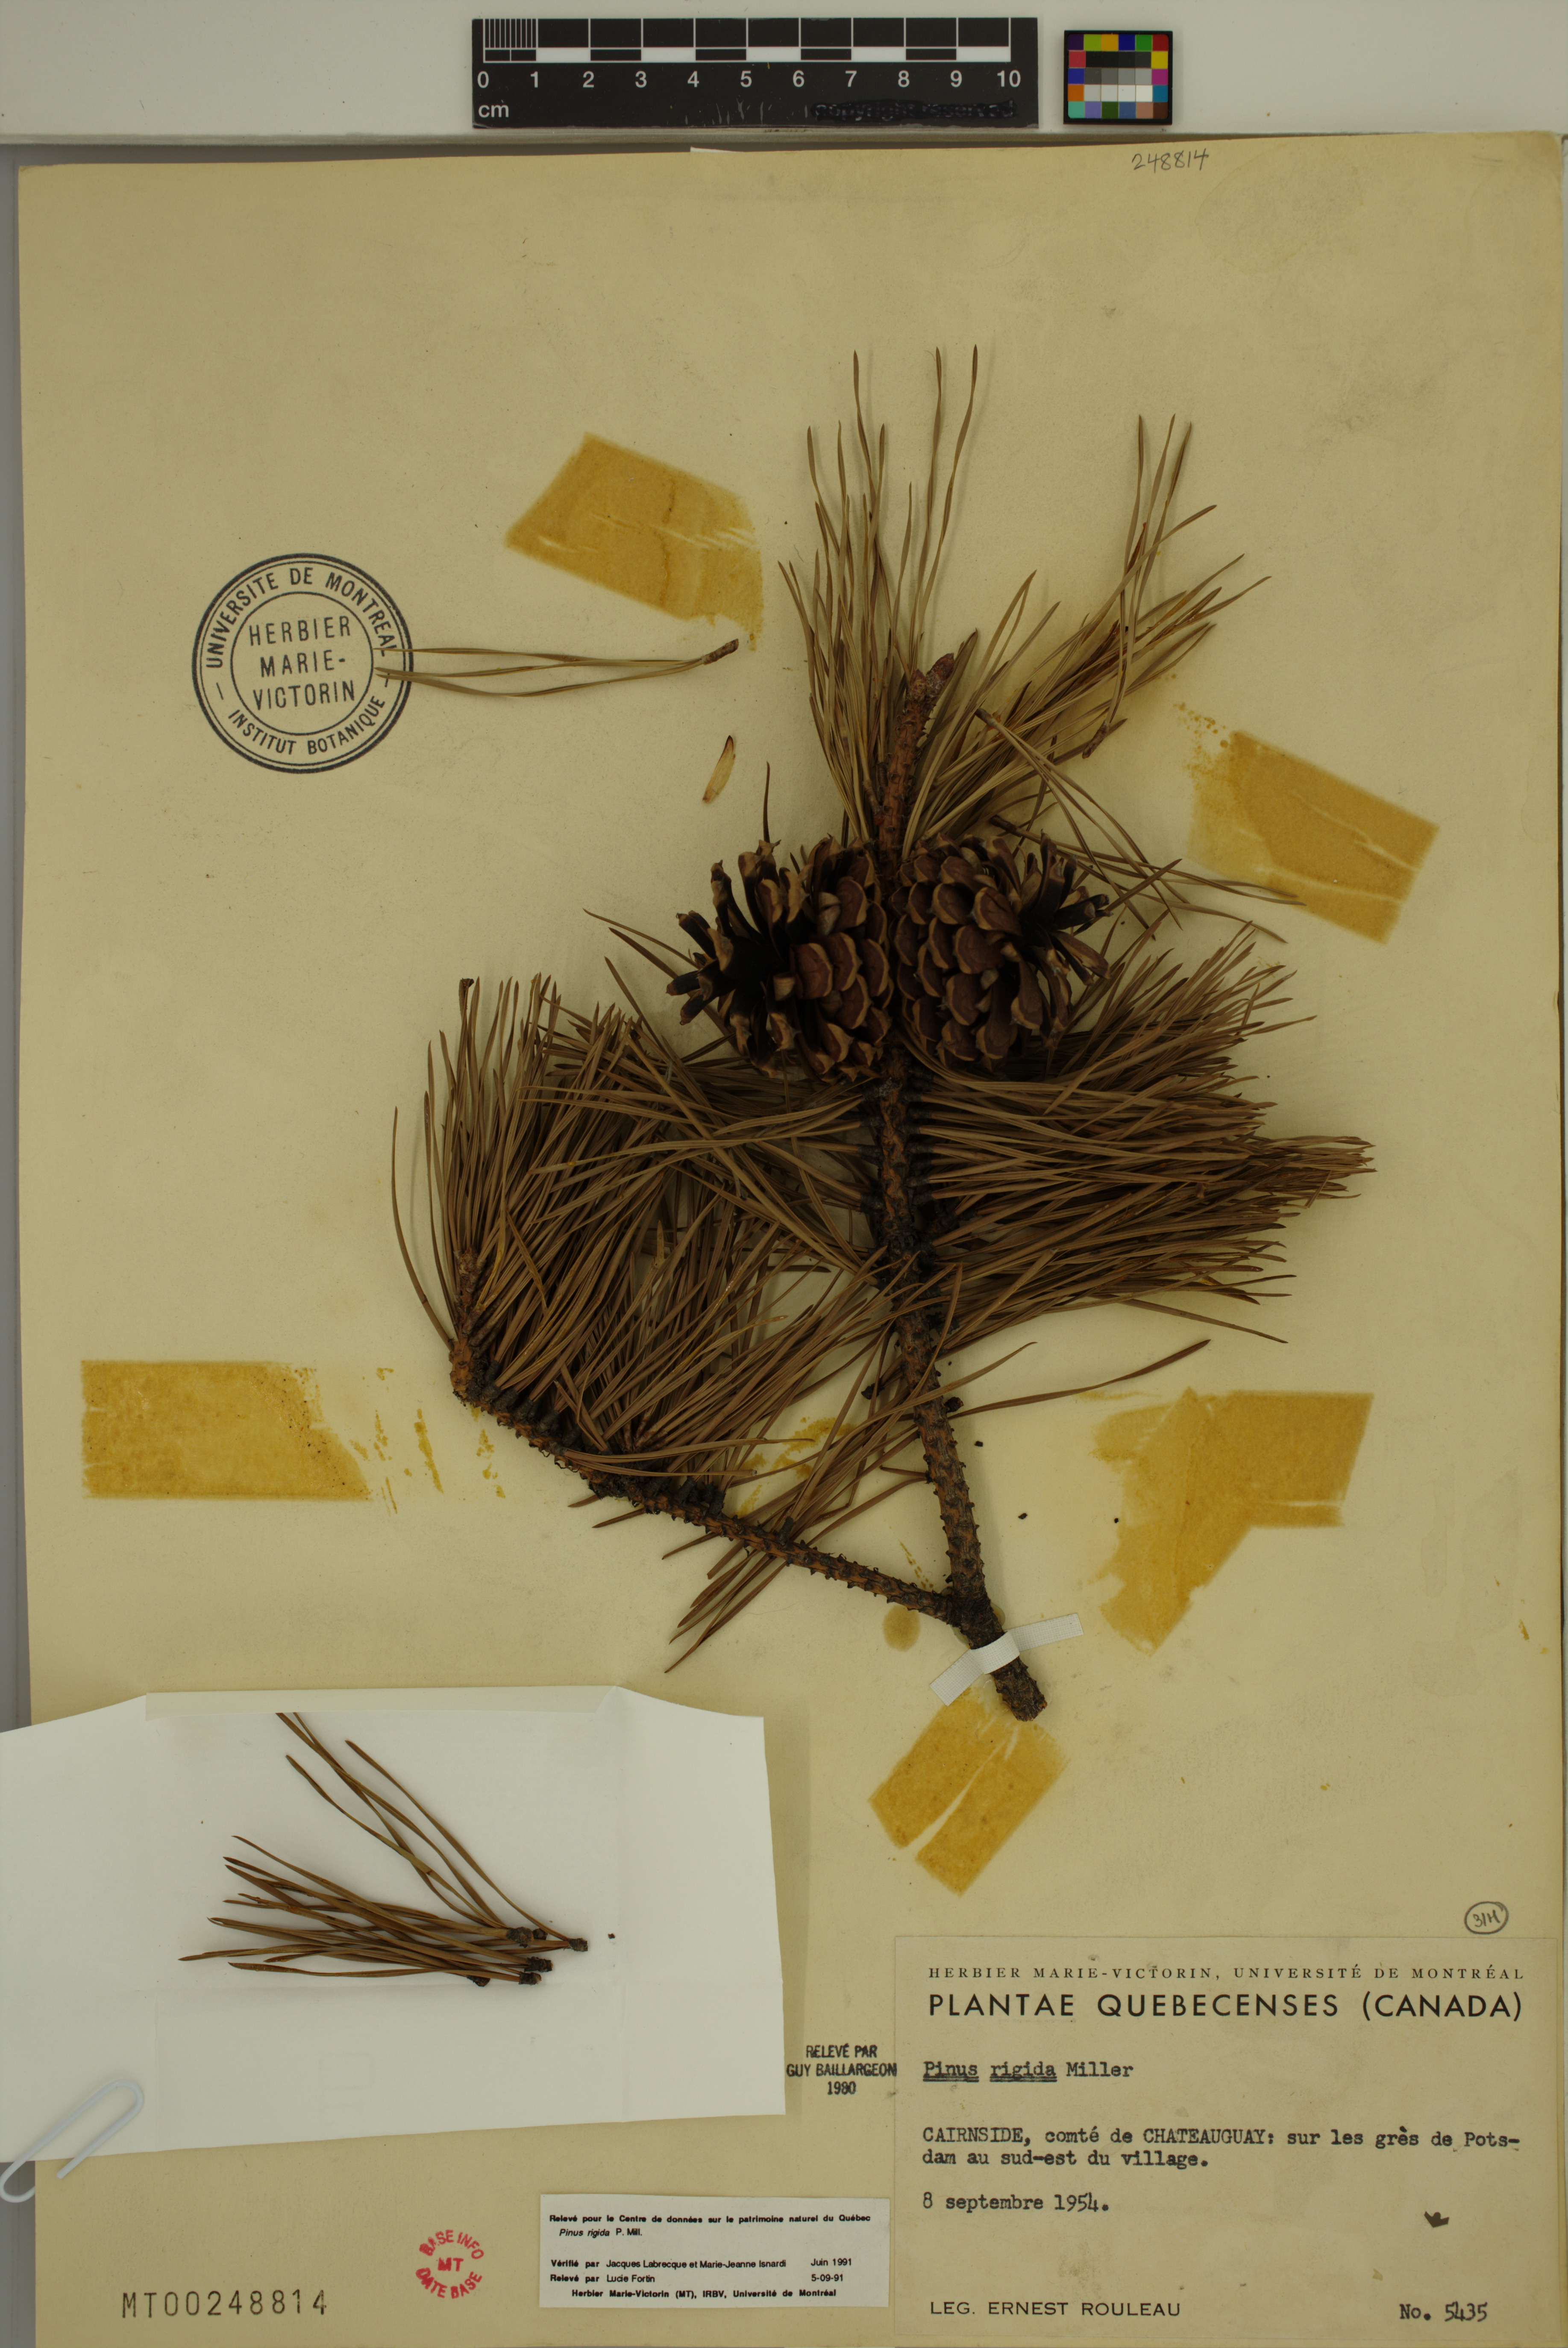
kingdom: Plantae
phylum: Tracheophyta
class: Pinopsida
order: Pinales
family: Pinaceae
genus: Pinus
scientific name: Pinus rigida
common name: Pitch pine
